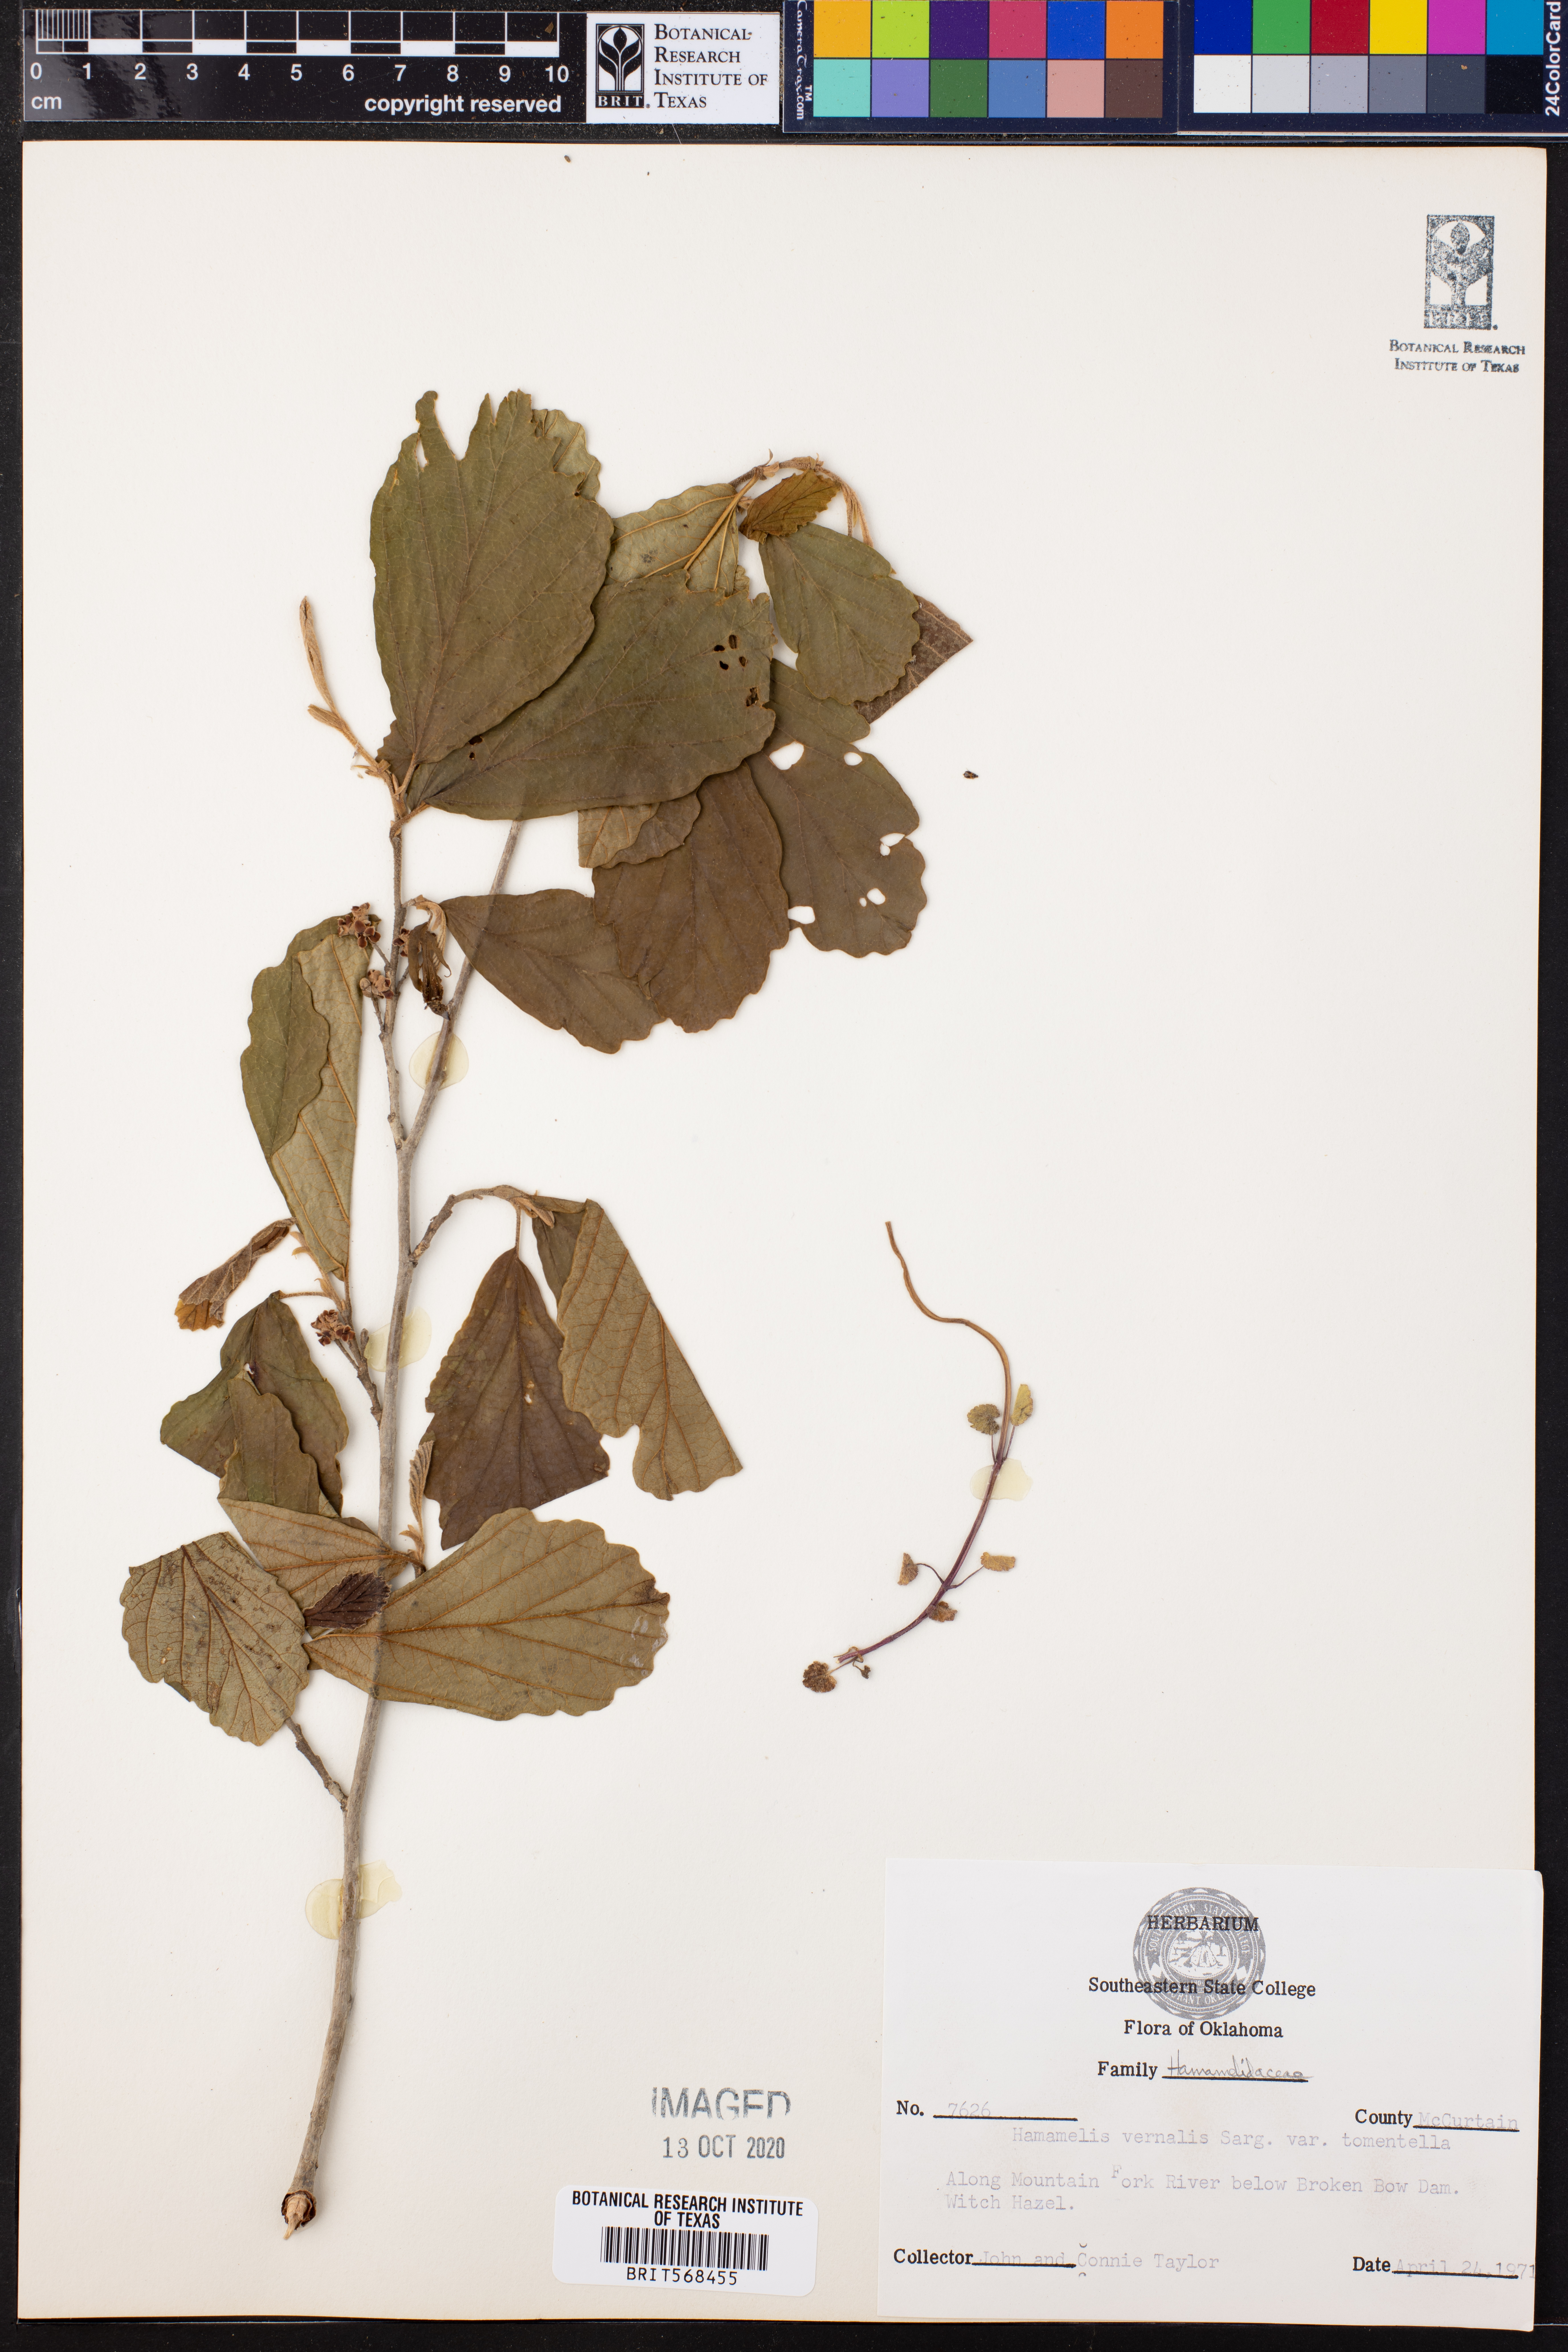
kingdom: Plantae
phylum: Tracheophyta
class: Magnoliopsida
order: Saxifragales
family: Hamamelidaceae
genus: Hamamelis
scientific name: Hamamelis vernalis
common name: Ozark witch-hazel
